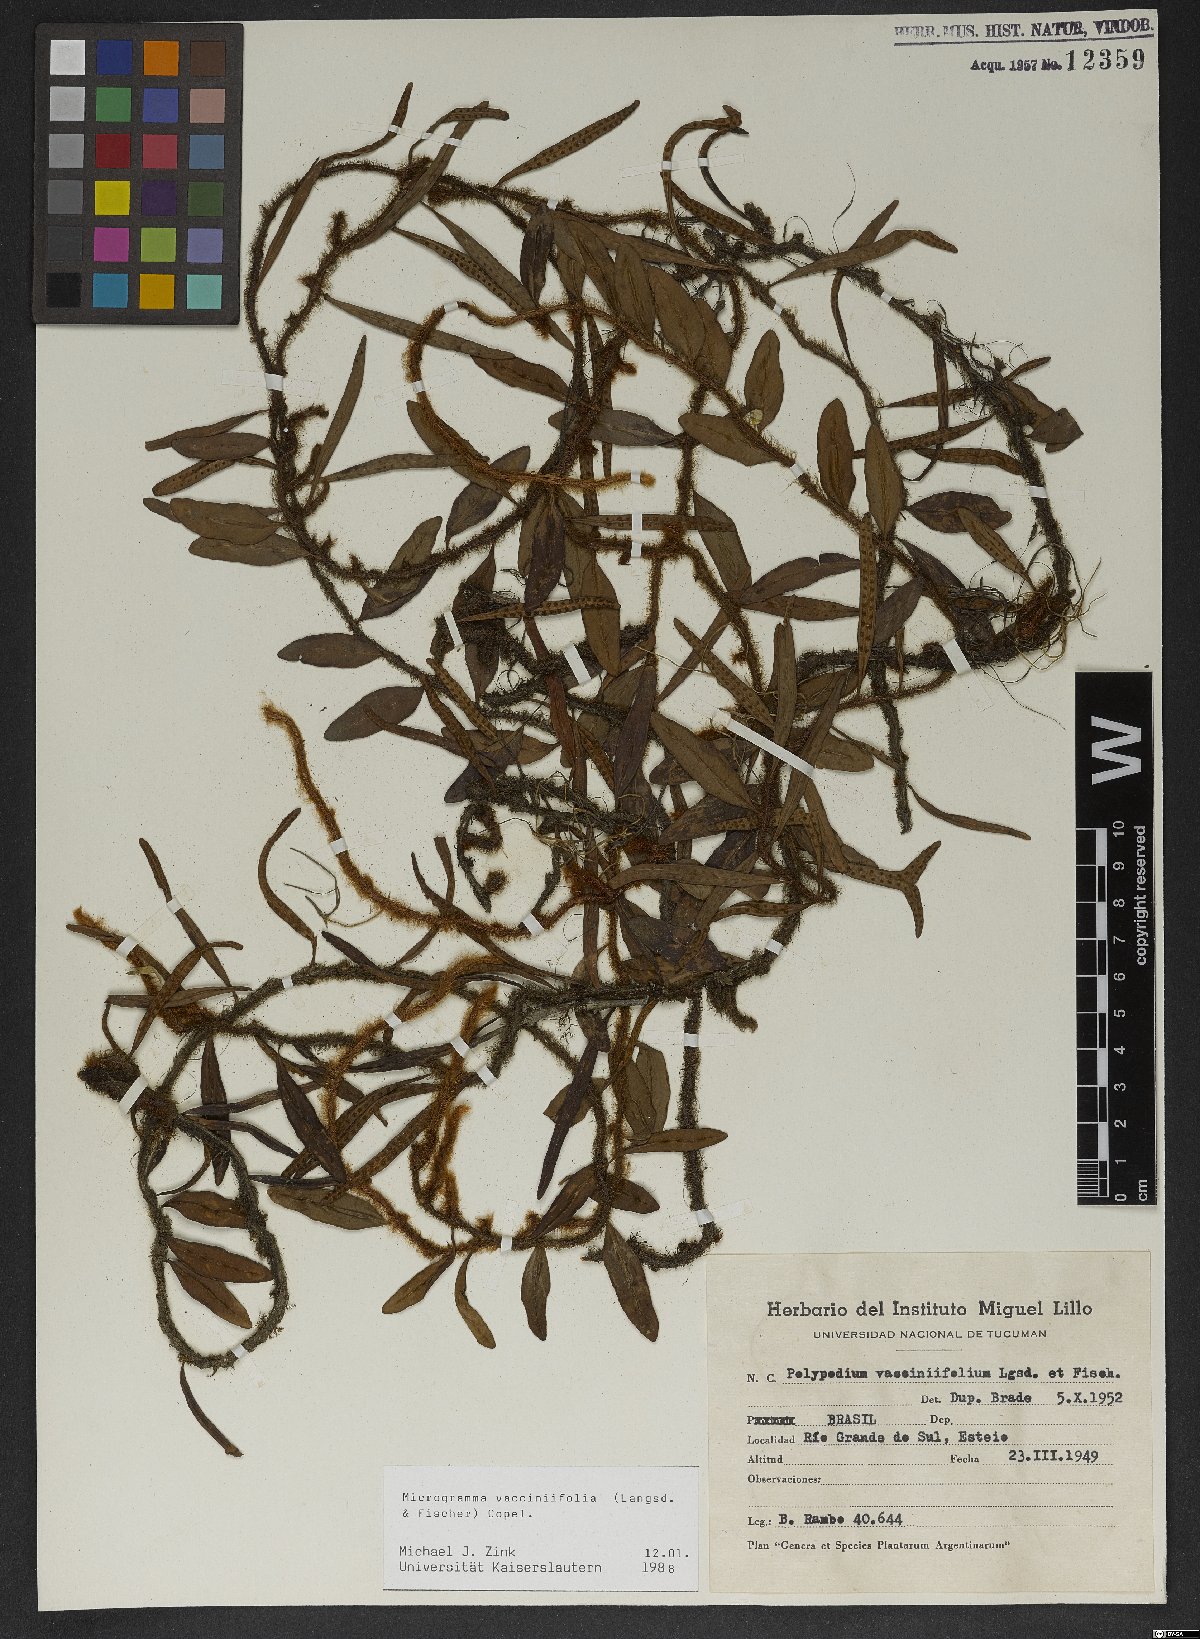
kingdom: Plantae
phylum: Tracheophyta
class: Polypodiopsida
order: Polypodiales
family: Polypodiaceae
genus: Microgramma
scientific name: Microgramma vaccinifolia
